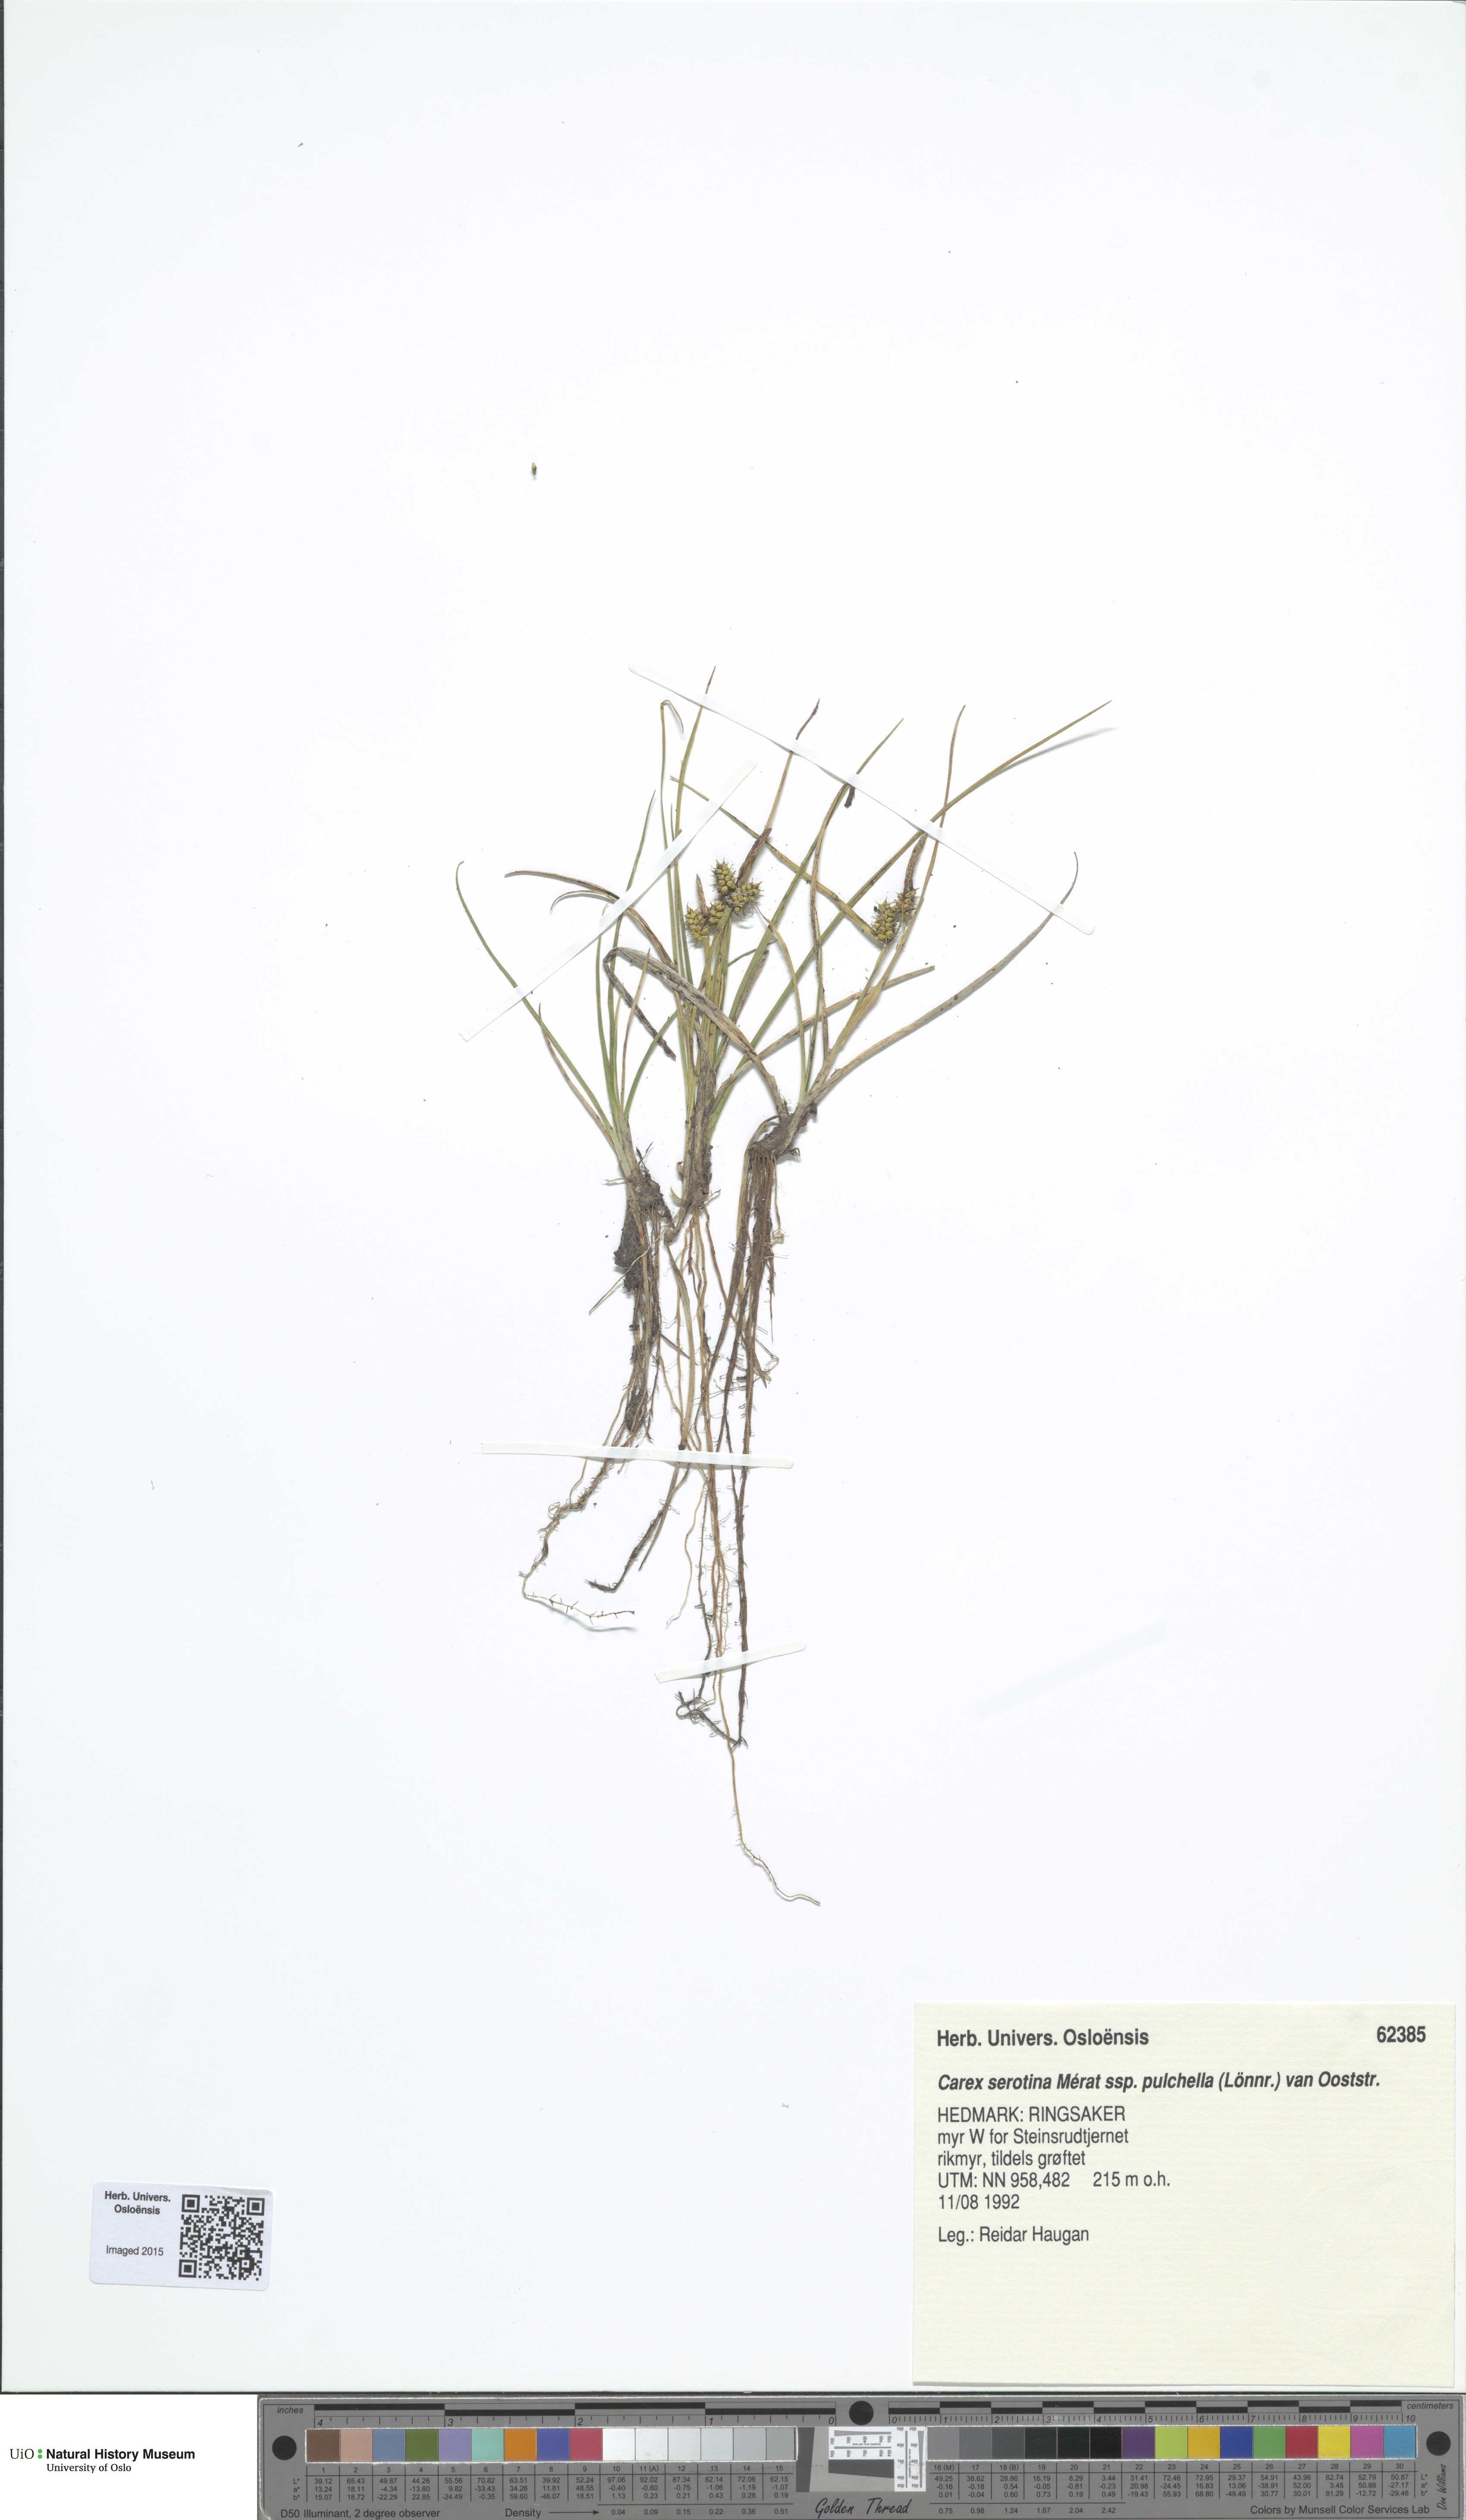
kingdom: Plantae
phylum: Tracheophyta
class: Liliopsida
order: Poales
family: Cyperaceae
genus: Carex
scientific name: Carex oederi
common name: Common & small-fruited yellow-sedge
